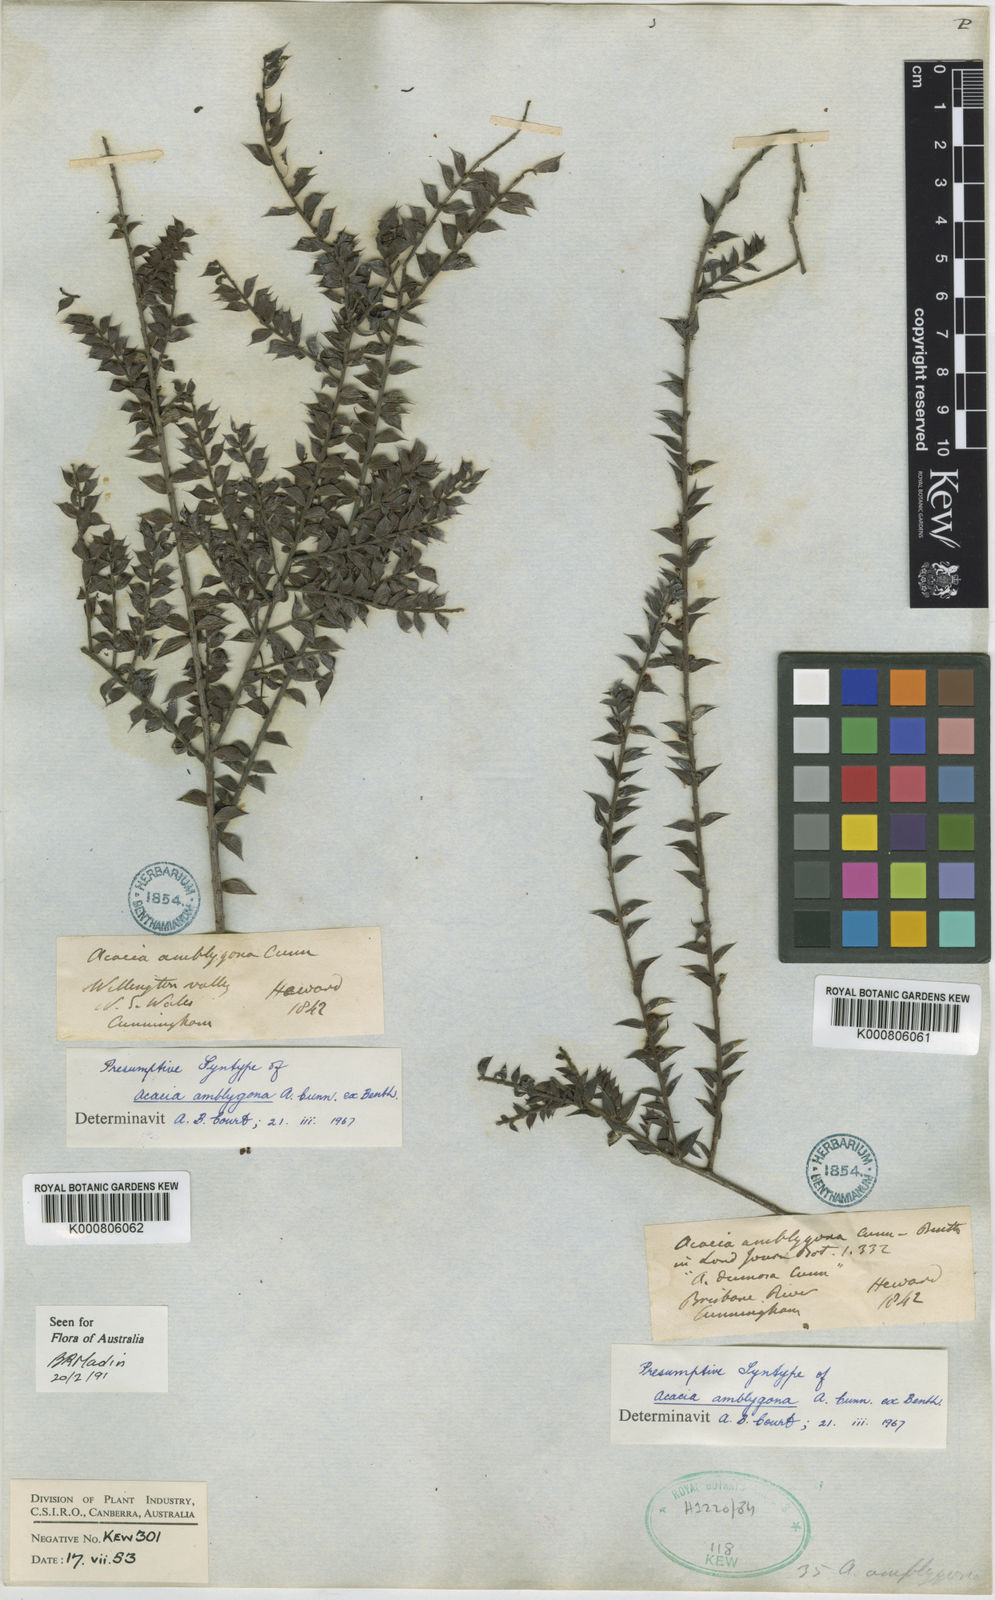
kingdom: Plantae
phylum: Tracheophyta
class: Magnoliopsida
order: Fabales
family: Fabaceae
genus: Acacia
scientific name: Acacia amblygona
